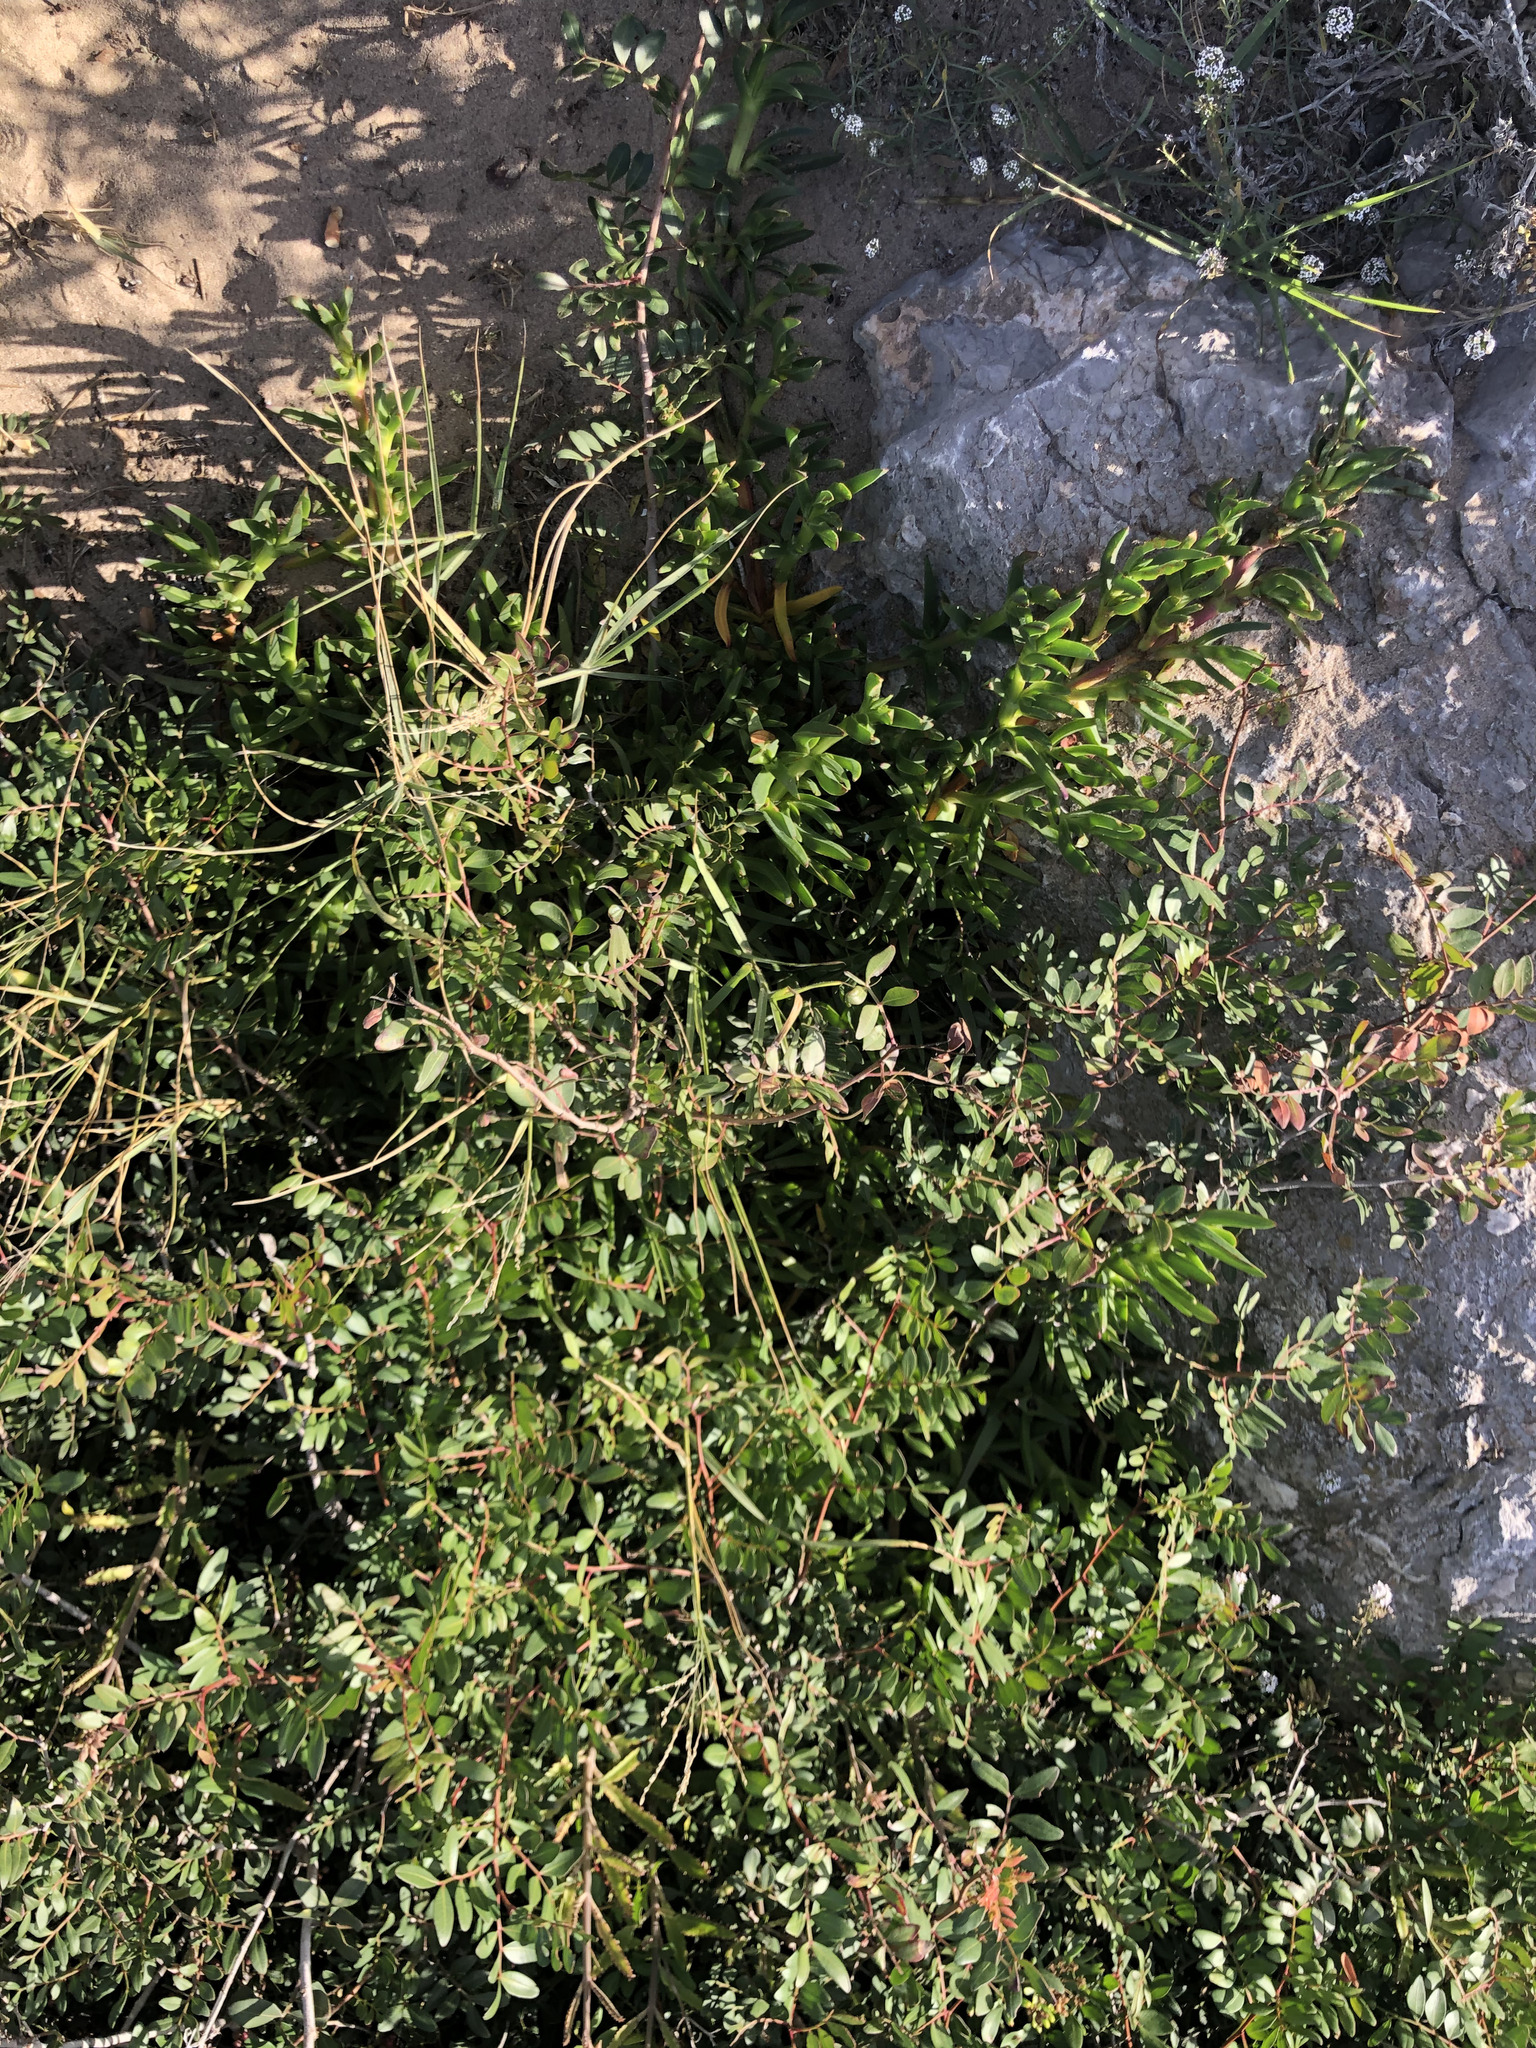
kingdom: Plantae
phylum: Tracheophyta
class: Magnoliopsida
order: Caryophyllales
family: Aizoaceae
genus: Carpobrotus
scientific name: Carpobrotus edulis
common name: Hottentot-fig
